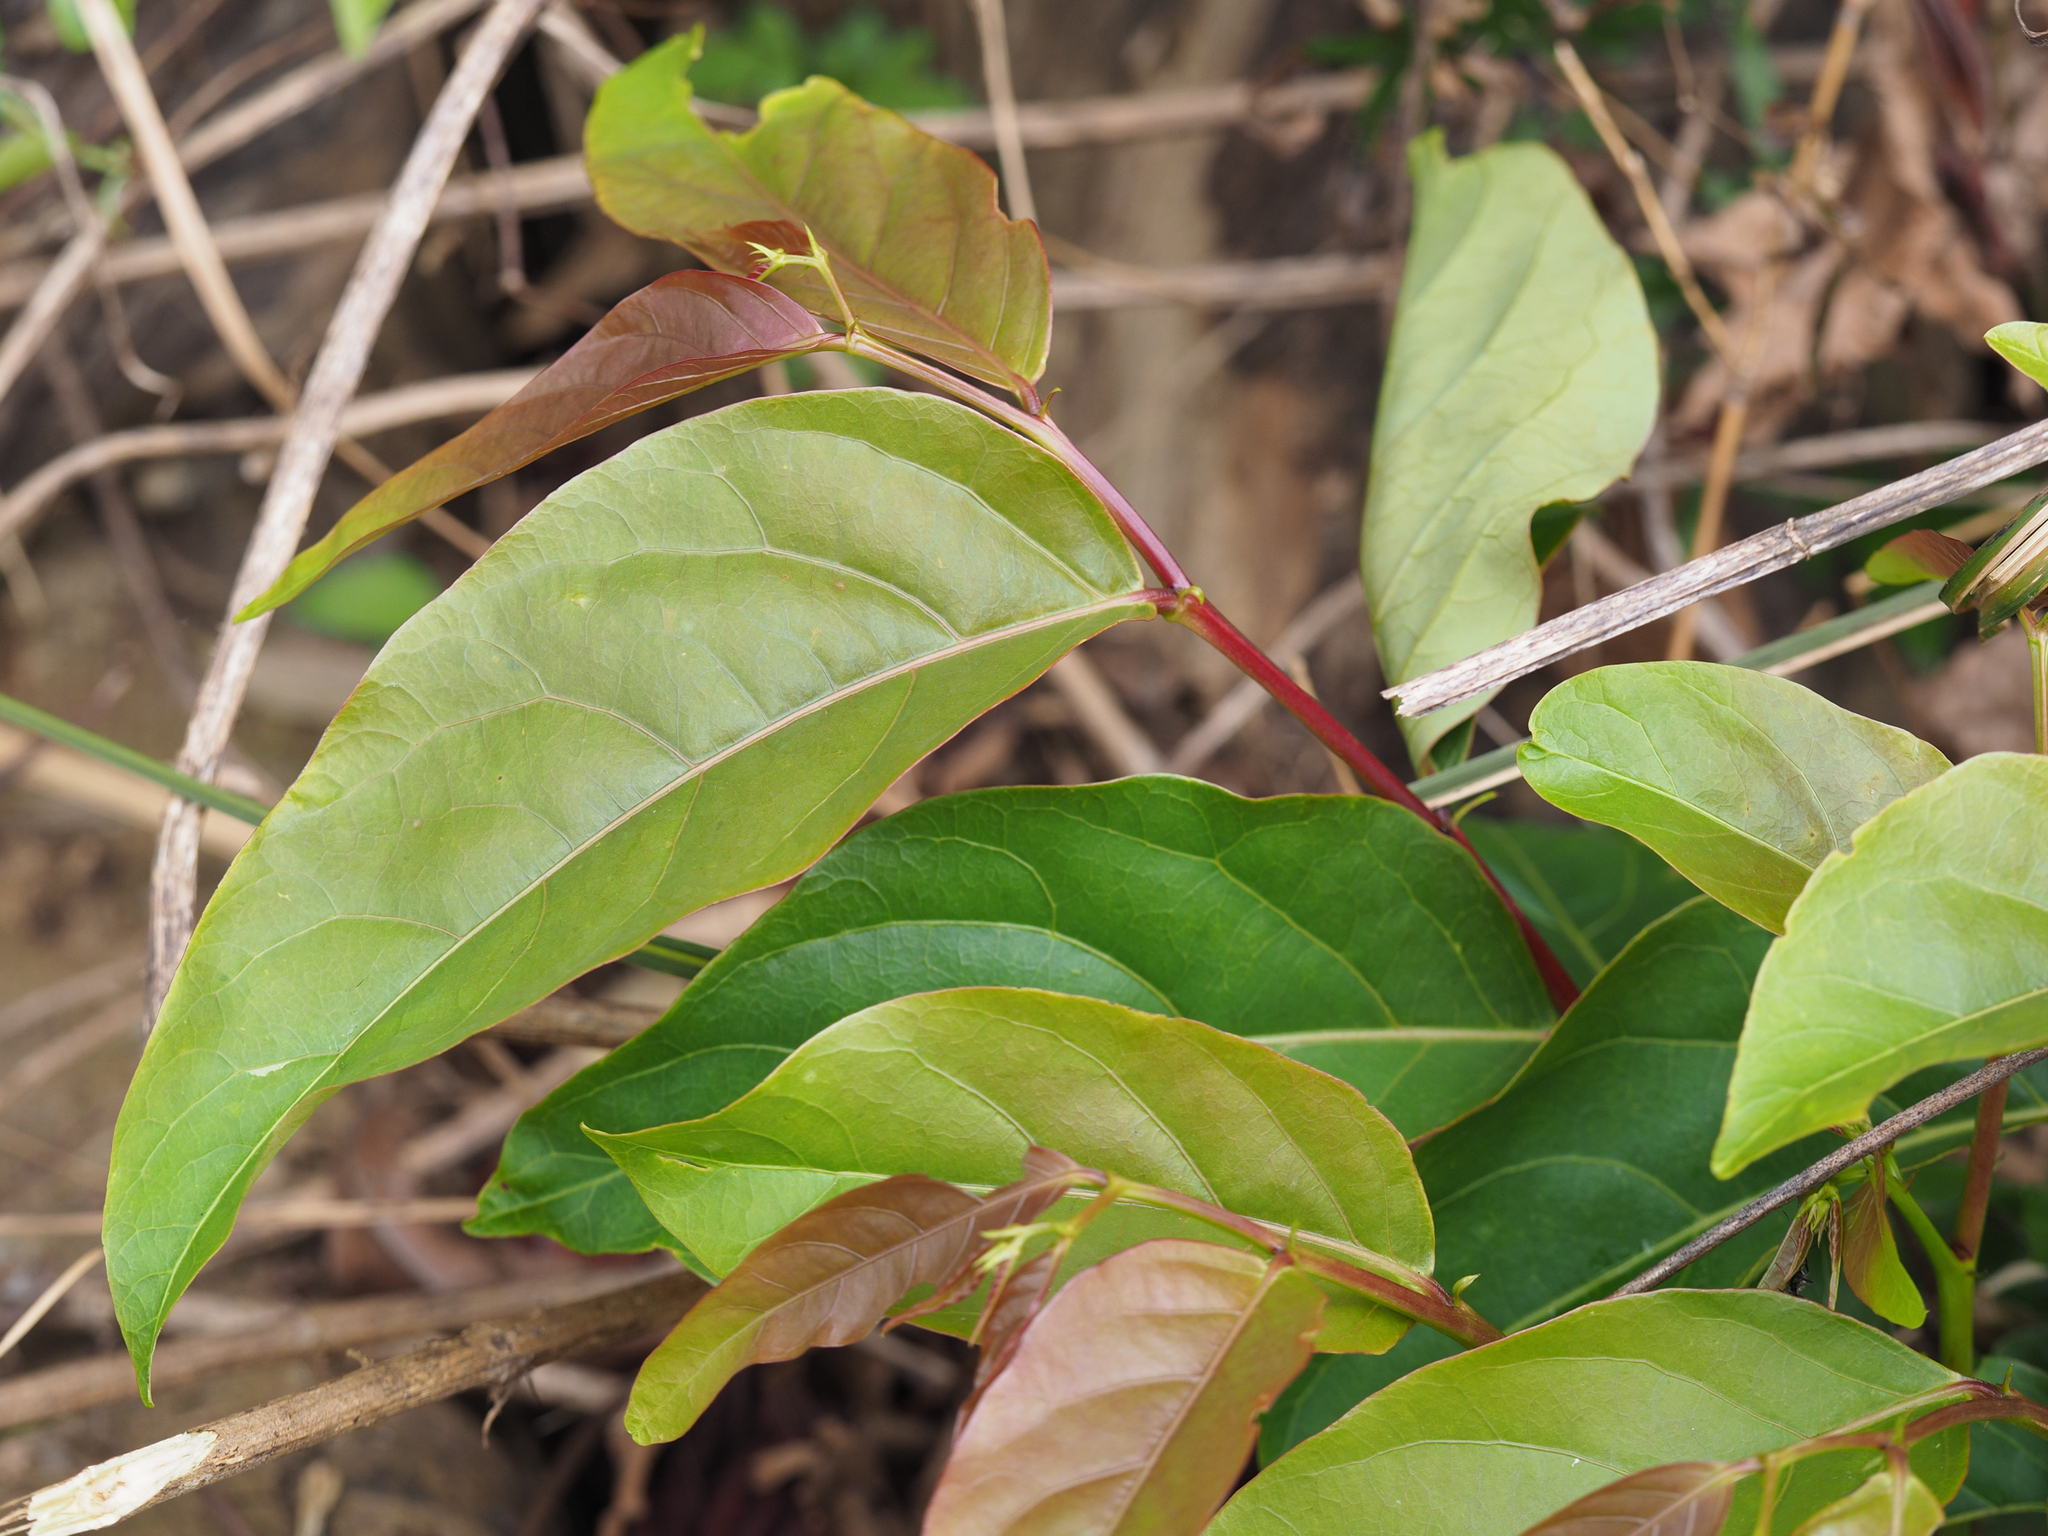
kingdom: Plantae
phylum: Tracheophyta
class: Magnoliopsida
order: Malpighiales
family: Phyllanthaceae
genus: Glochidion
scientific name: Glochidion lanceolatum
